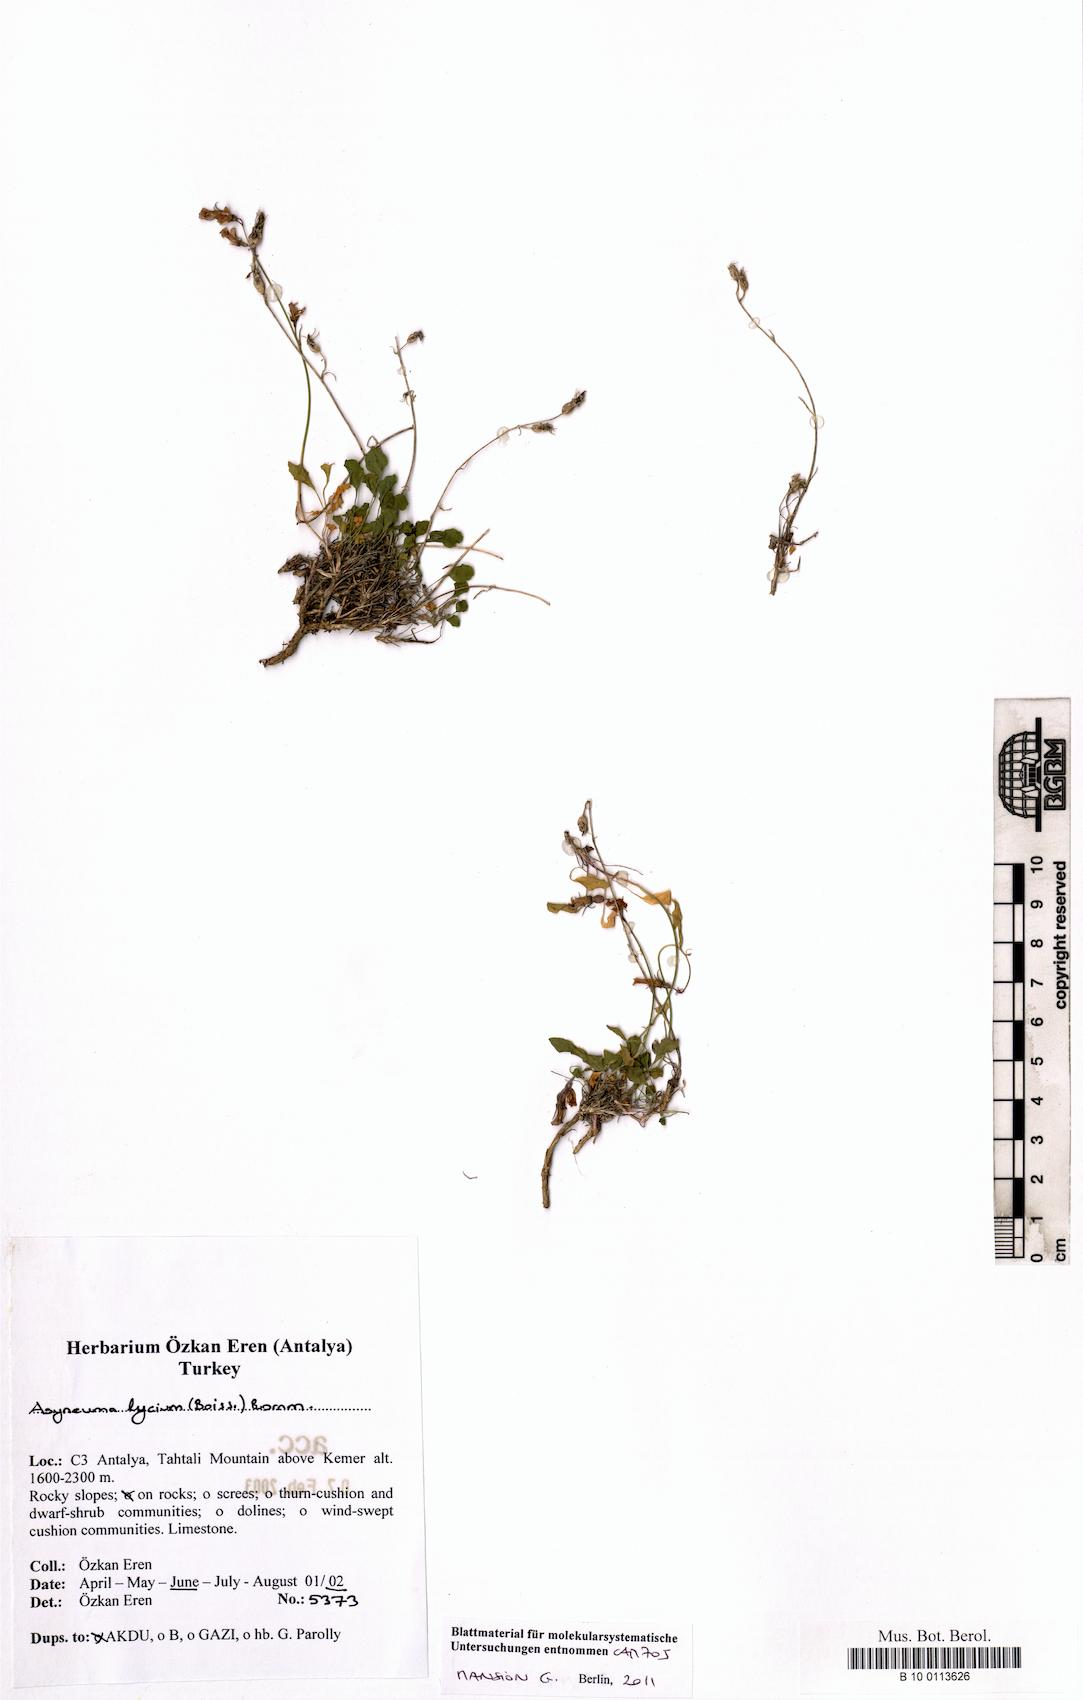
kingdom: Plantae
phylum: Tracheophyta
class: Magnoliopsida
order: Asterales
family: Campanulaceae
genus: Asyneuma
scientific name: Asyneuma lycium
